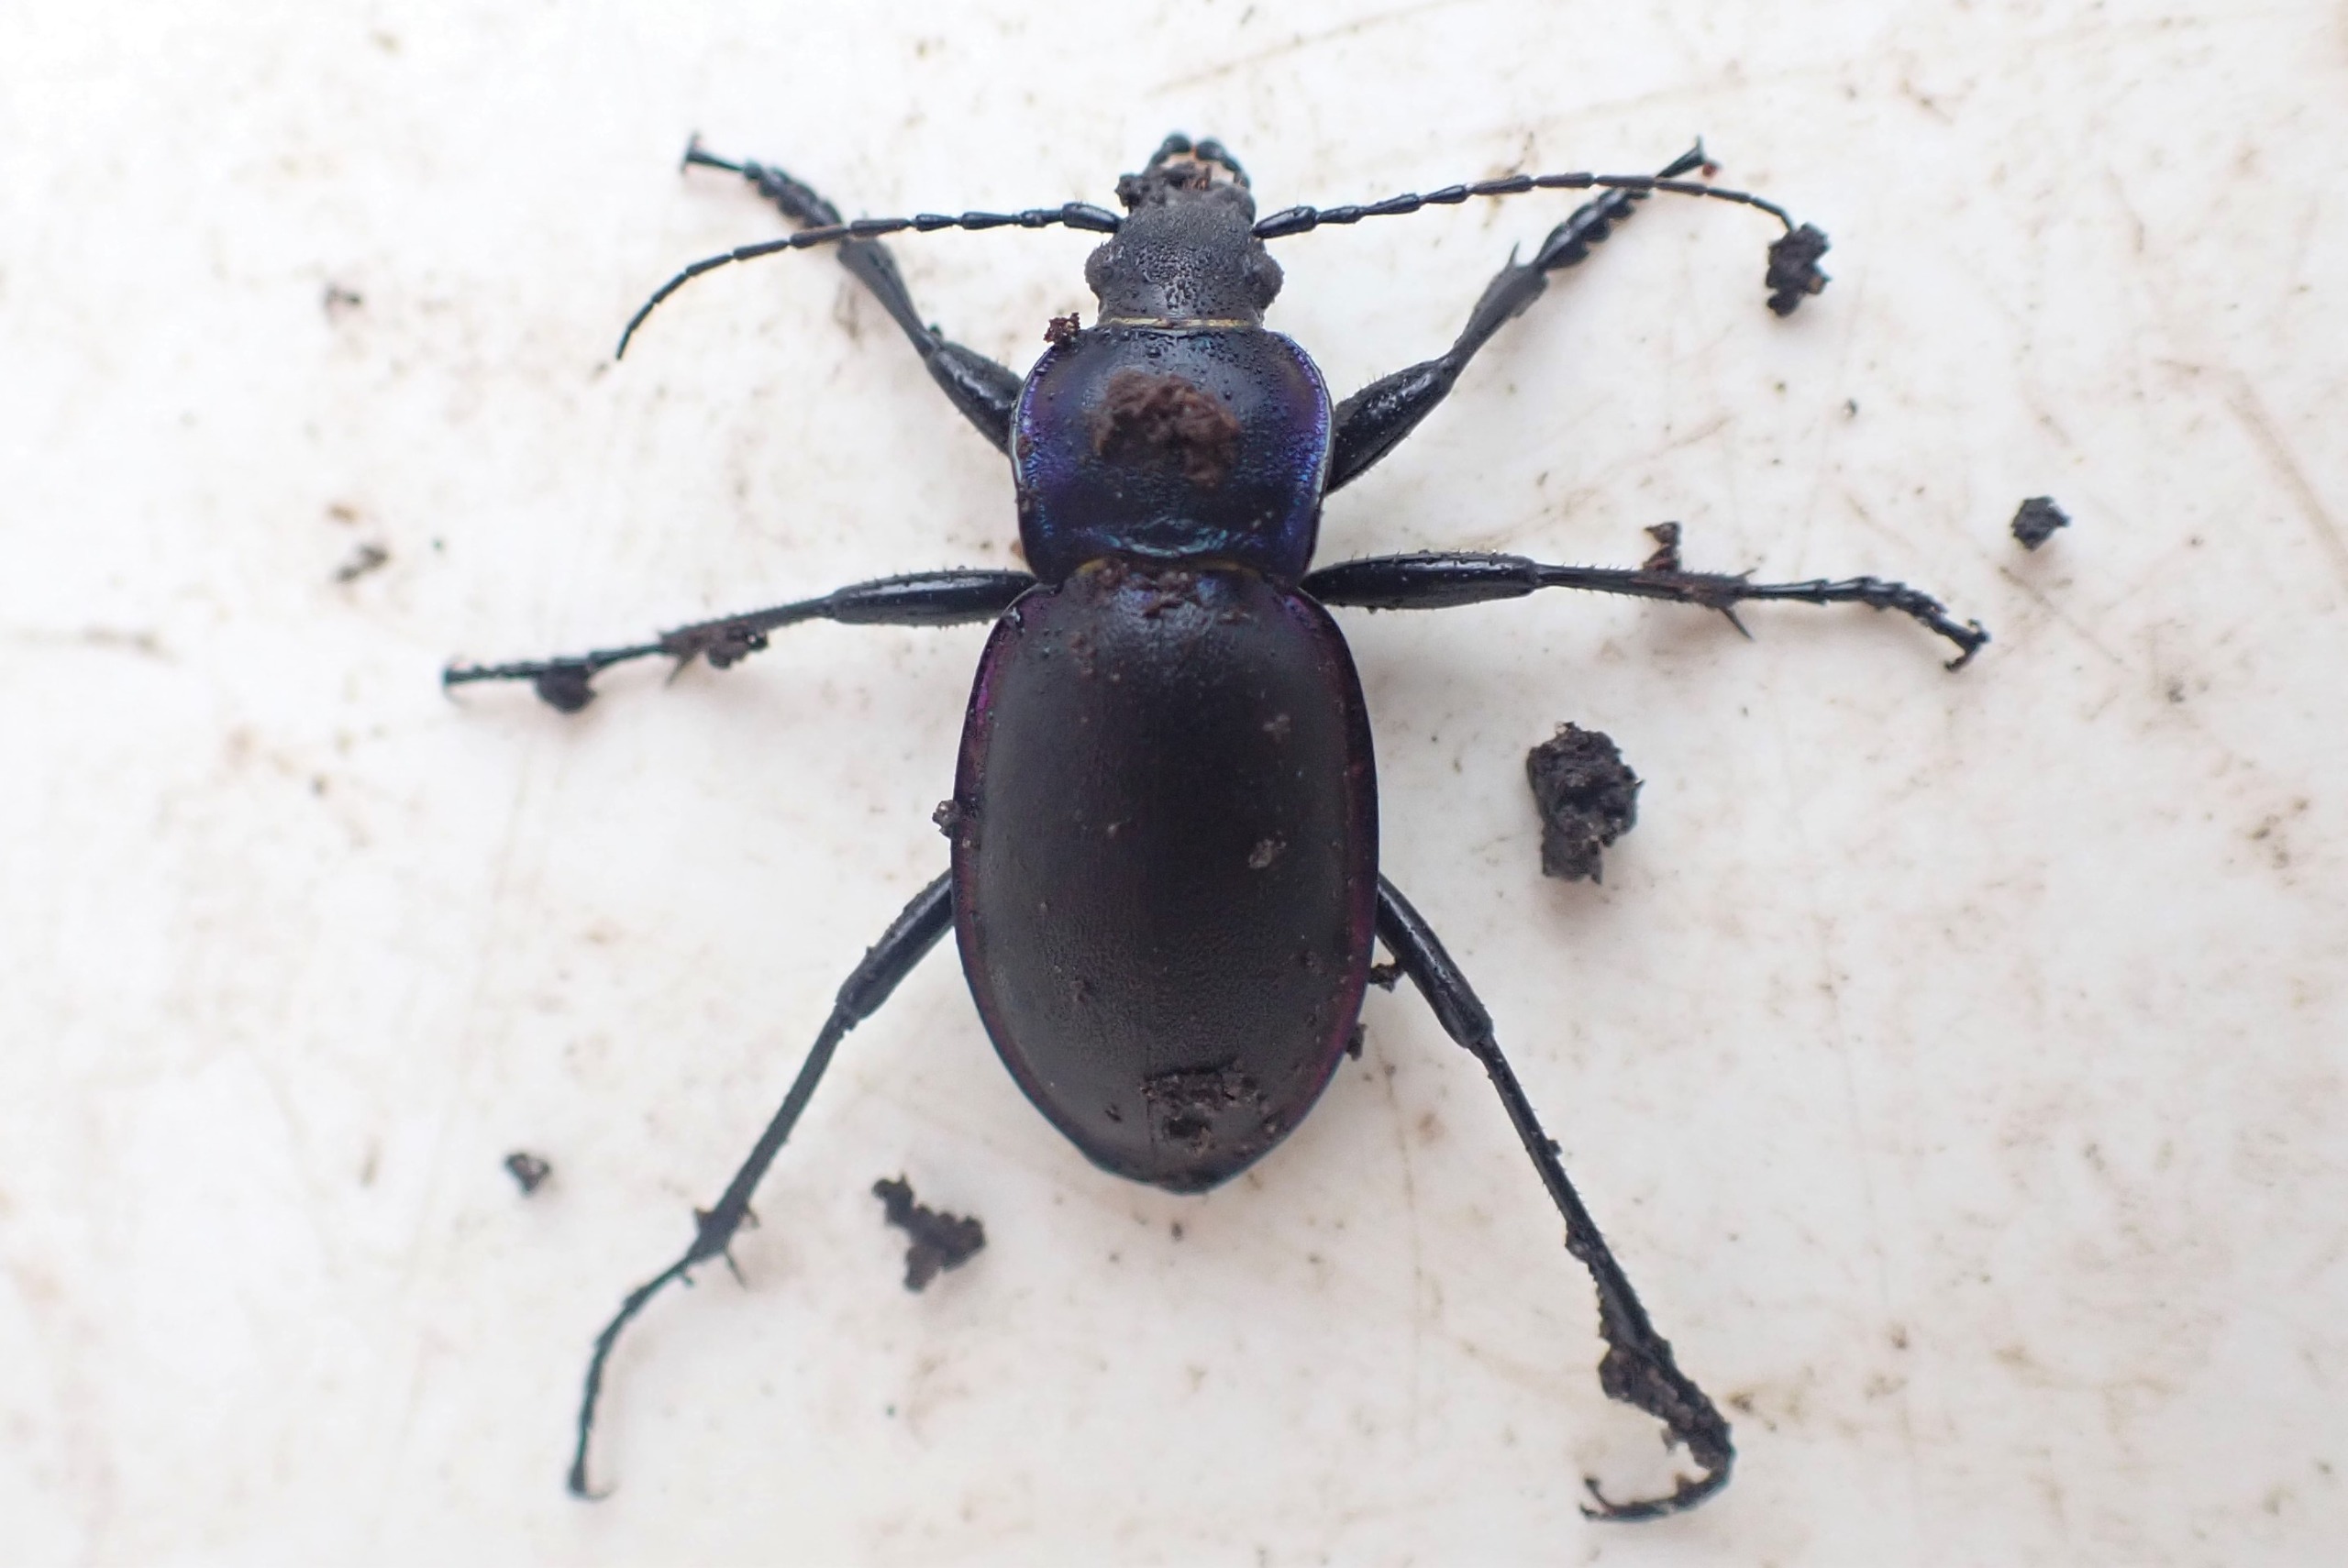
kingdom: Animalia
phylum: Arthropoda
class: Insecta
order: Coleoptera
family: Carabidae
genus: Carabus
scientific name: Carabus violaceus
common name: Violetrandet løber
